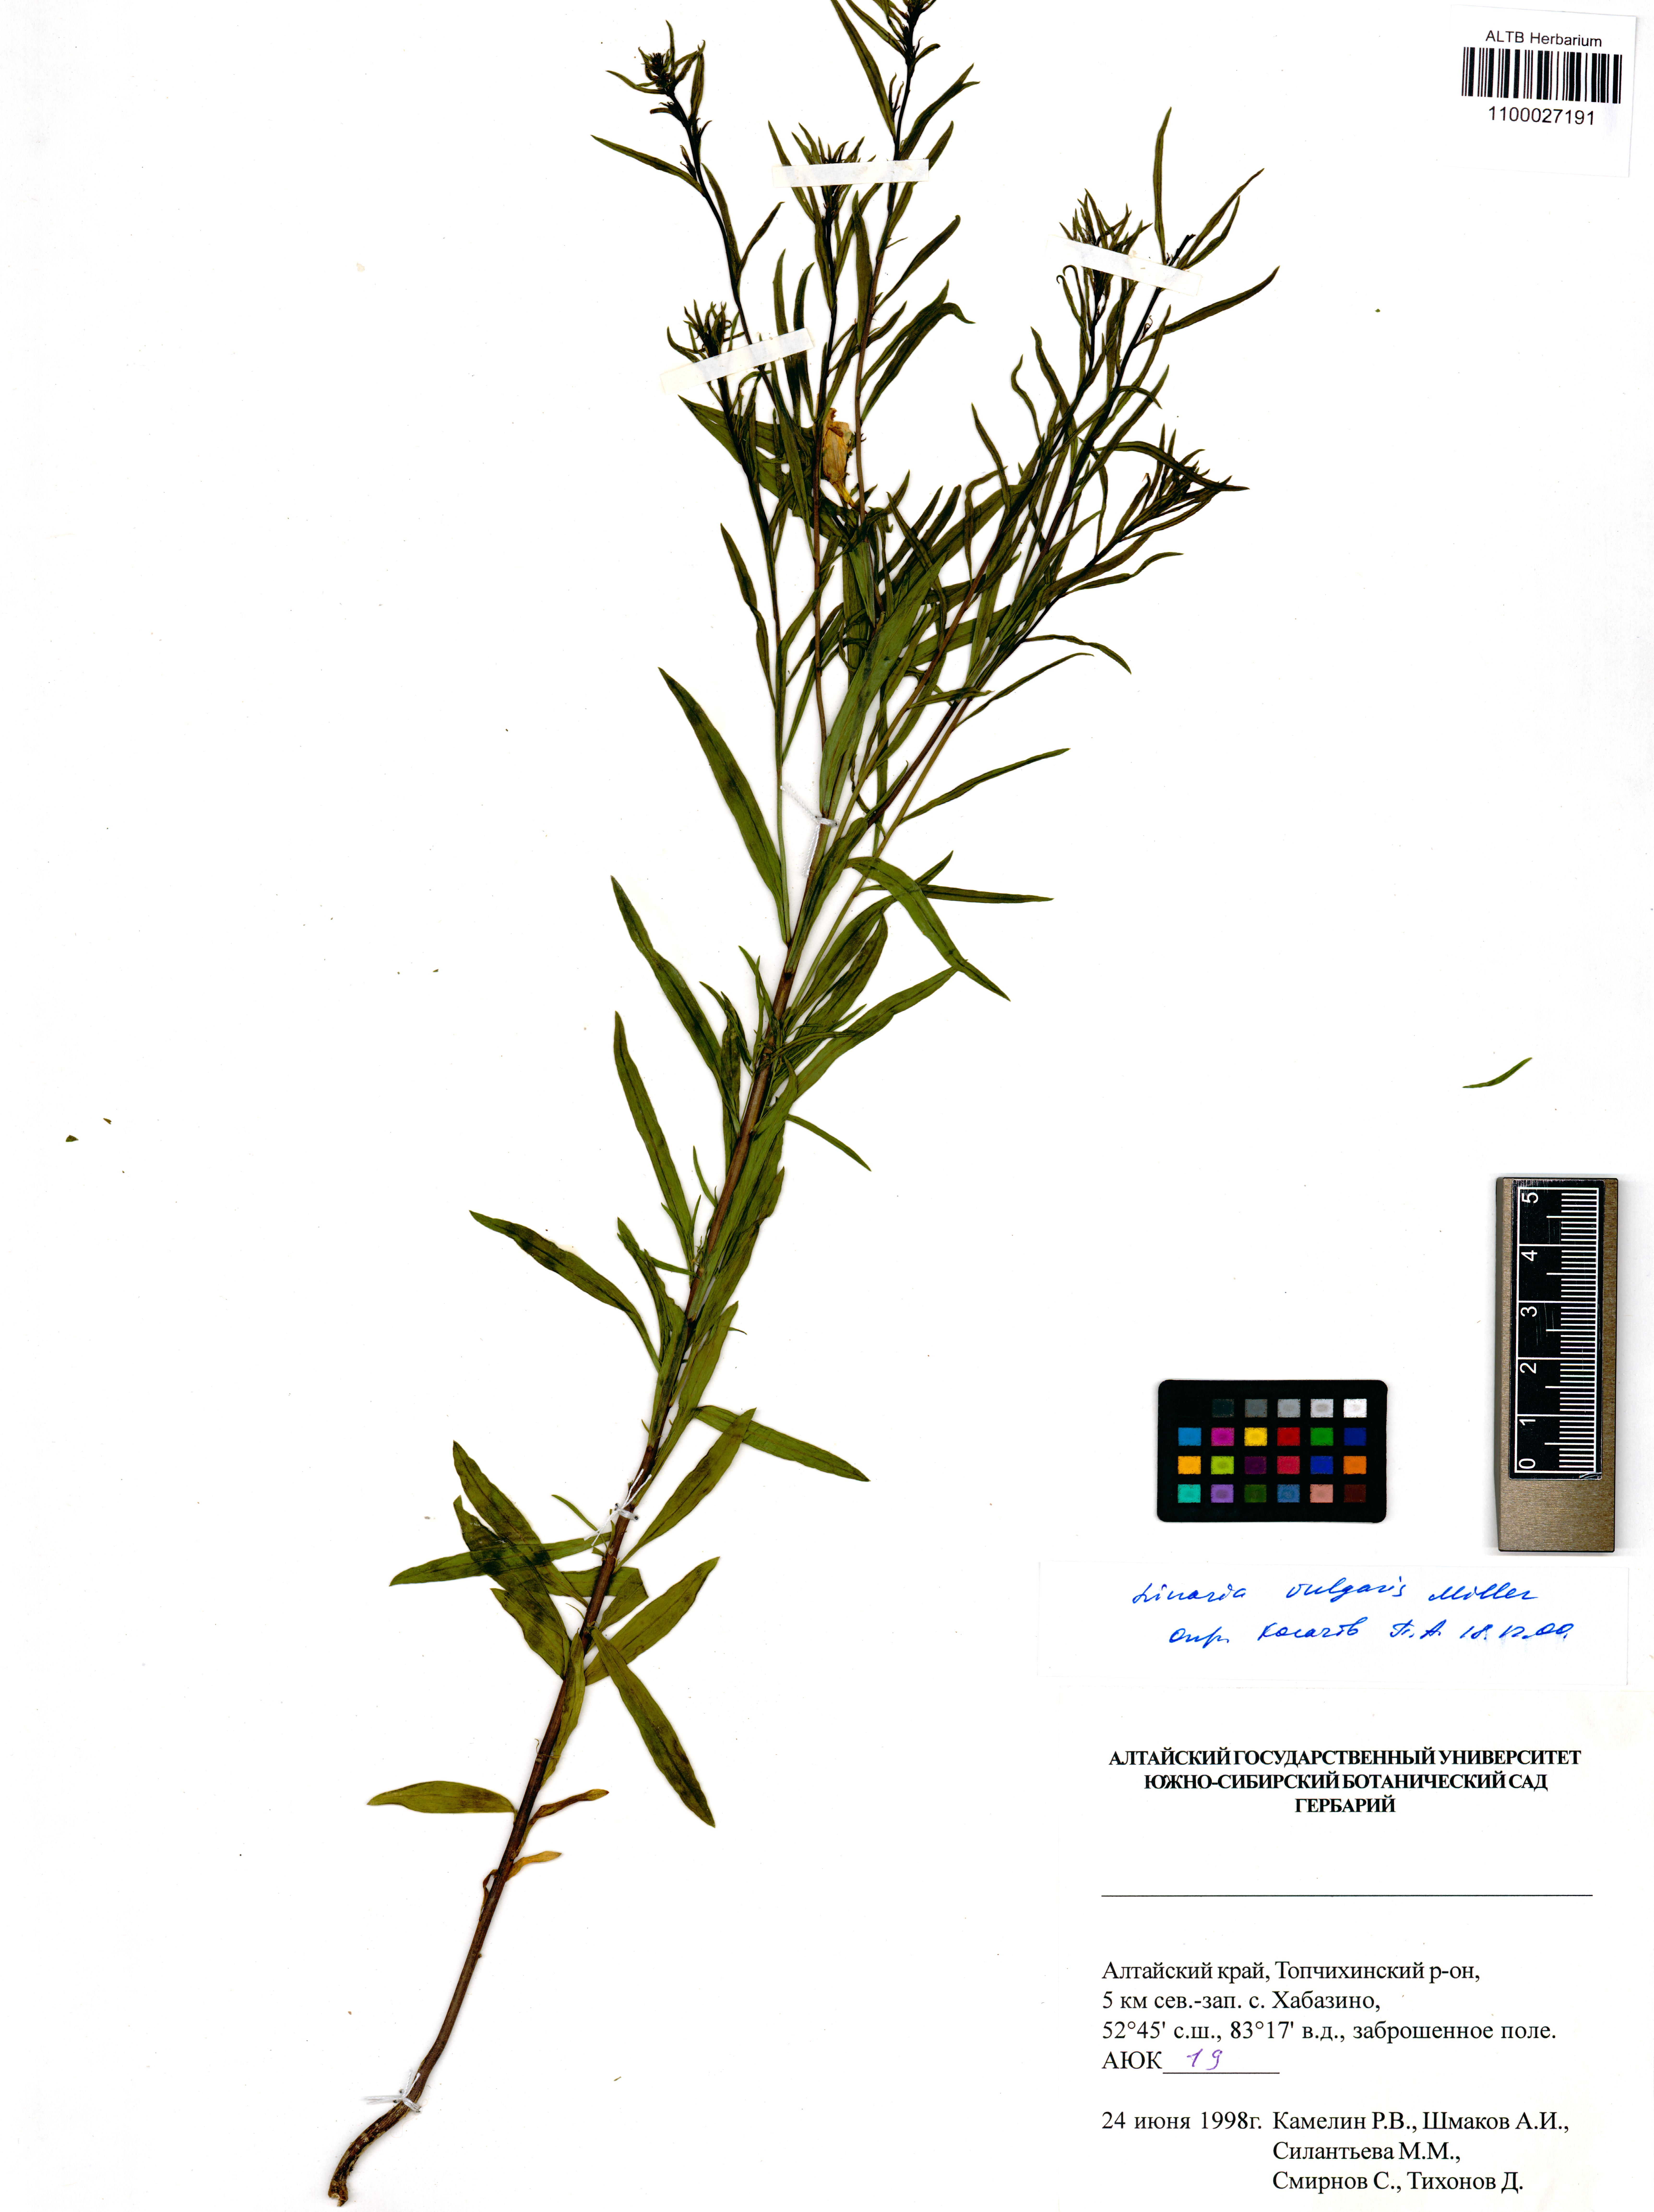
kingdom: Plantae
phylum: Tracheophyta
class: Magnoliopsida
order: Lamiales
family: Plantaginaceae
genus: Linaria
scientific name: Linaria vulgaris
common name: Butter and eggs
